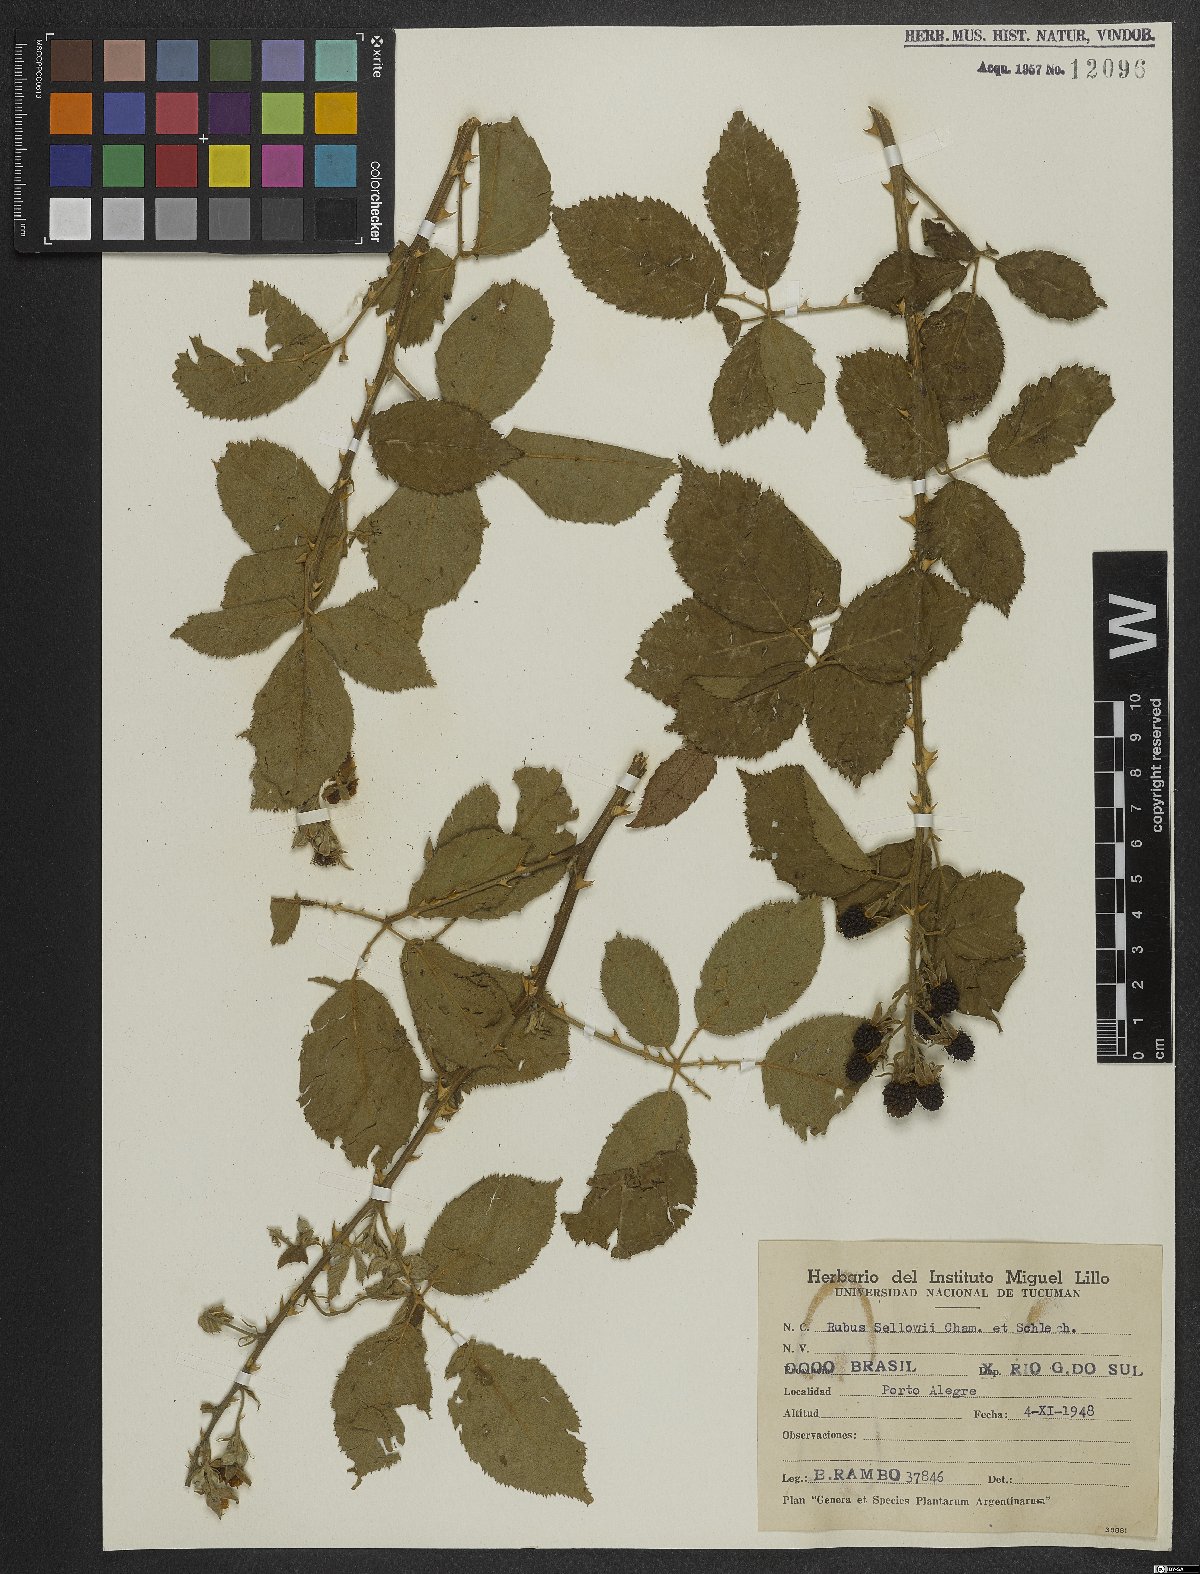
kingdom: Plantae
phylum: Tracheophyta
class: Magnoliopsida
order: Rosales
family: Rosaceae
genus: Rubus
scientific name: Rubus sellowii
